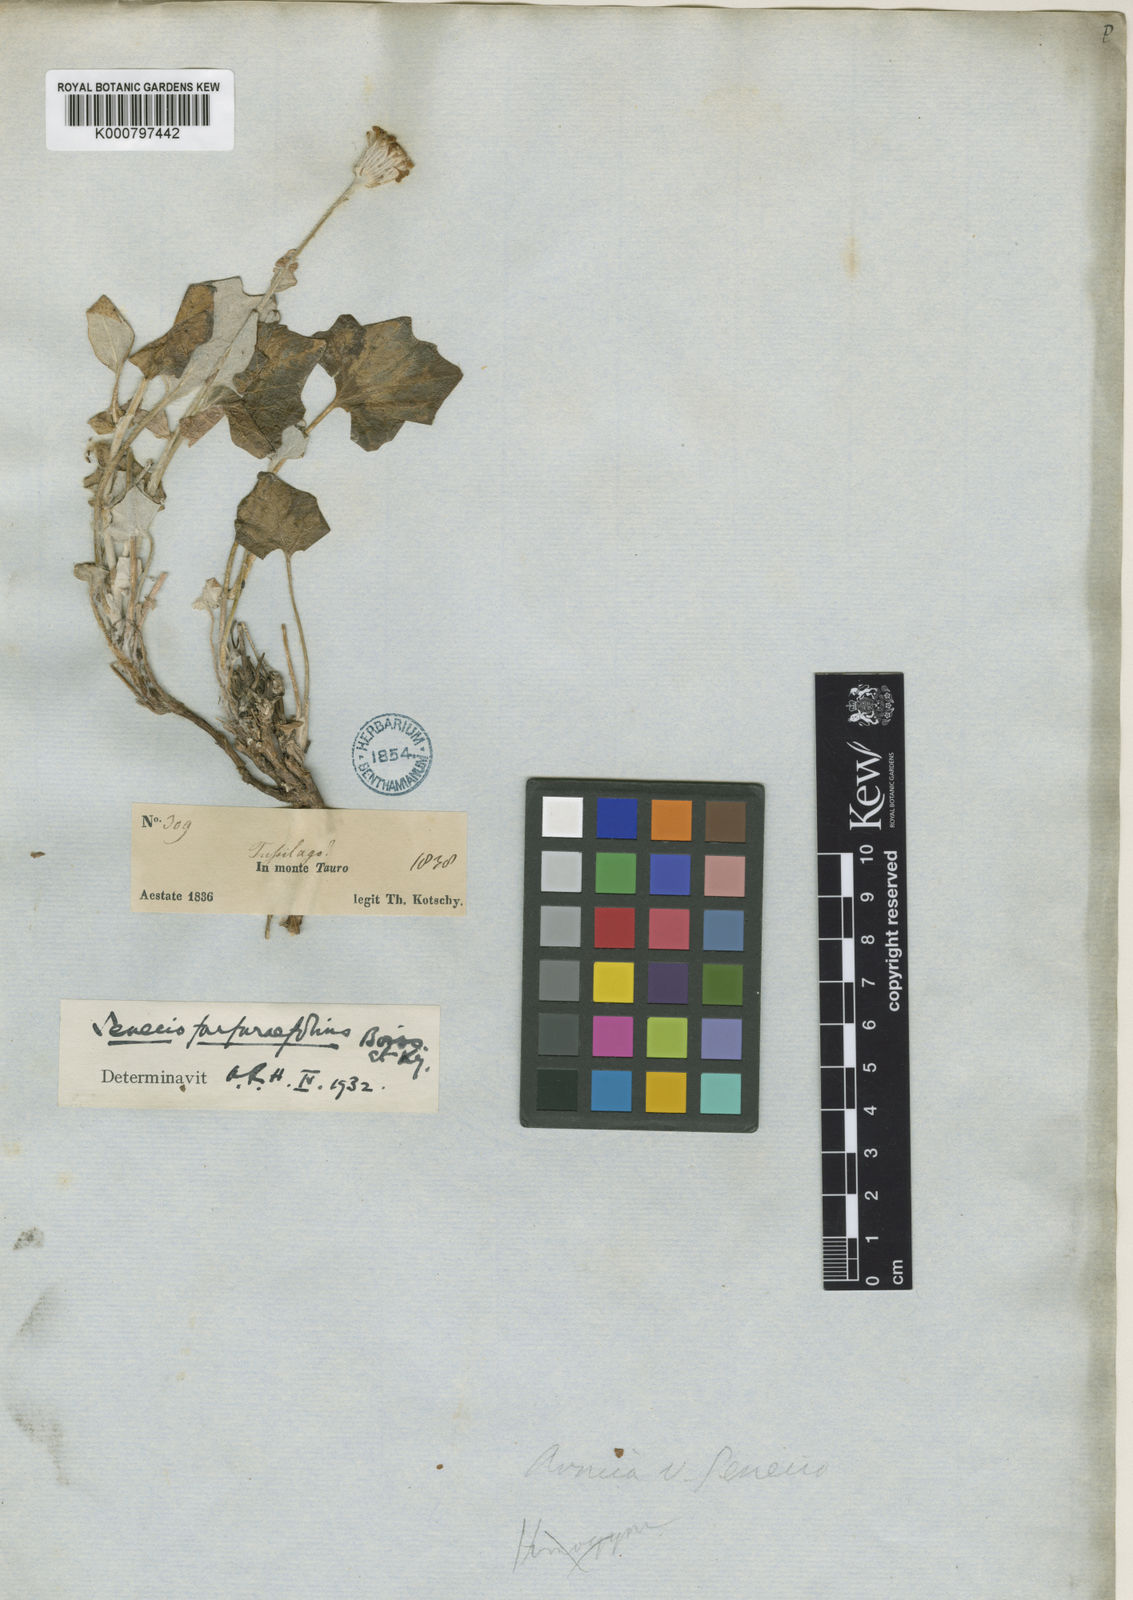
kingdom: Plantae
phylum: Tracheophyta
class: Magnoliopsida
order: Asterales
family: Asteraceae
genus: Turanecio
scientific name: Turanecio farfarifolius
